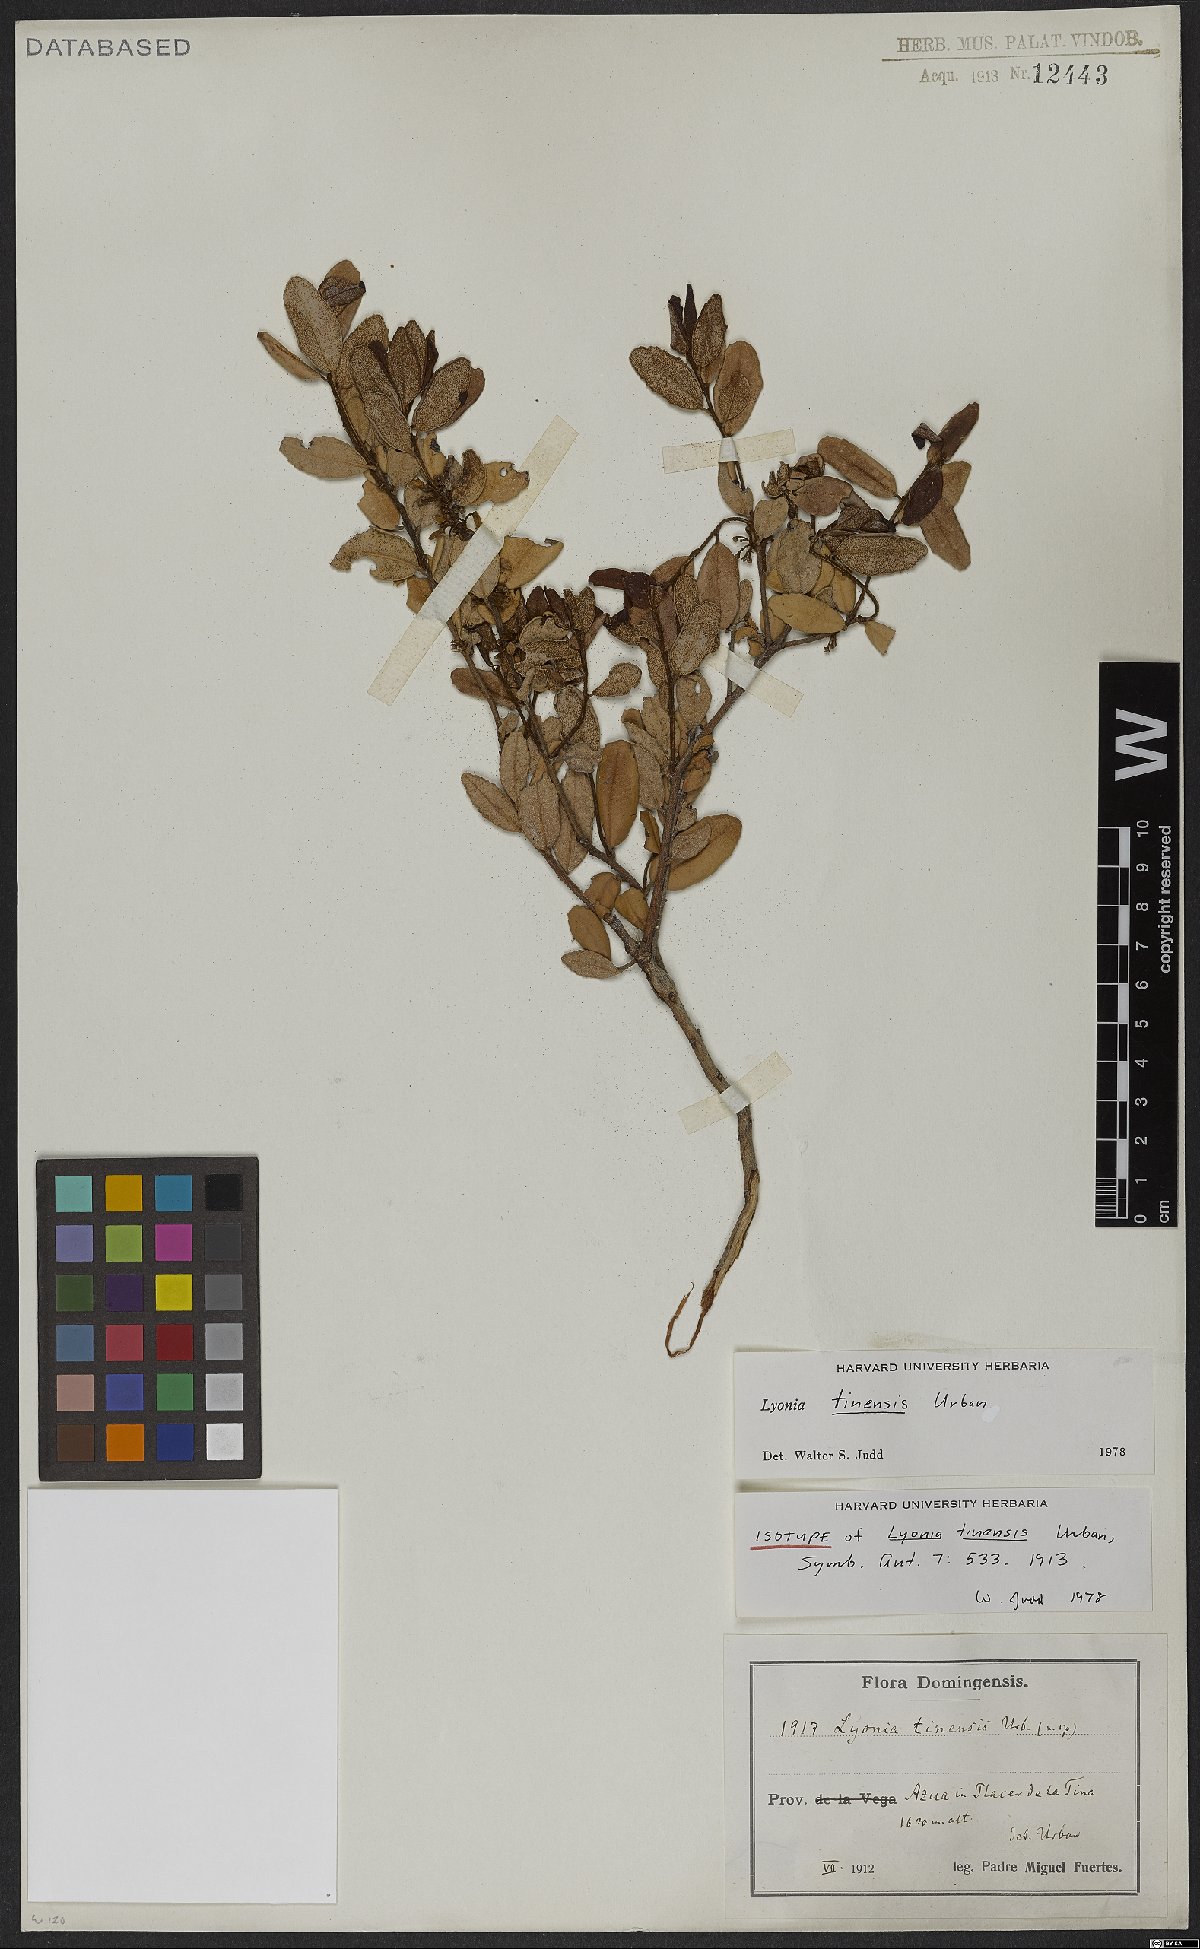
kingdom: Plantae
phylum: Tracheophyta
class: Magnoliopsida
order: Ericales
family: Ericaceae
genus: Lyonia
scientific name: Lyonia tinensis
